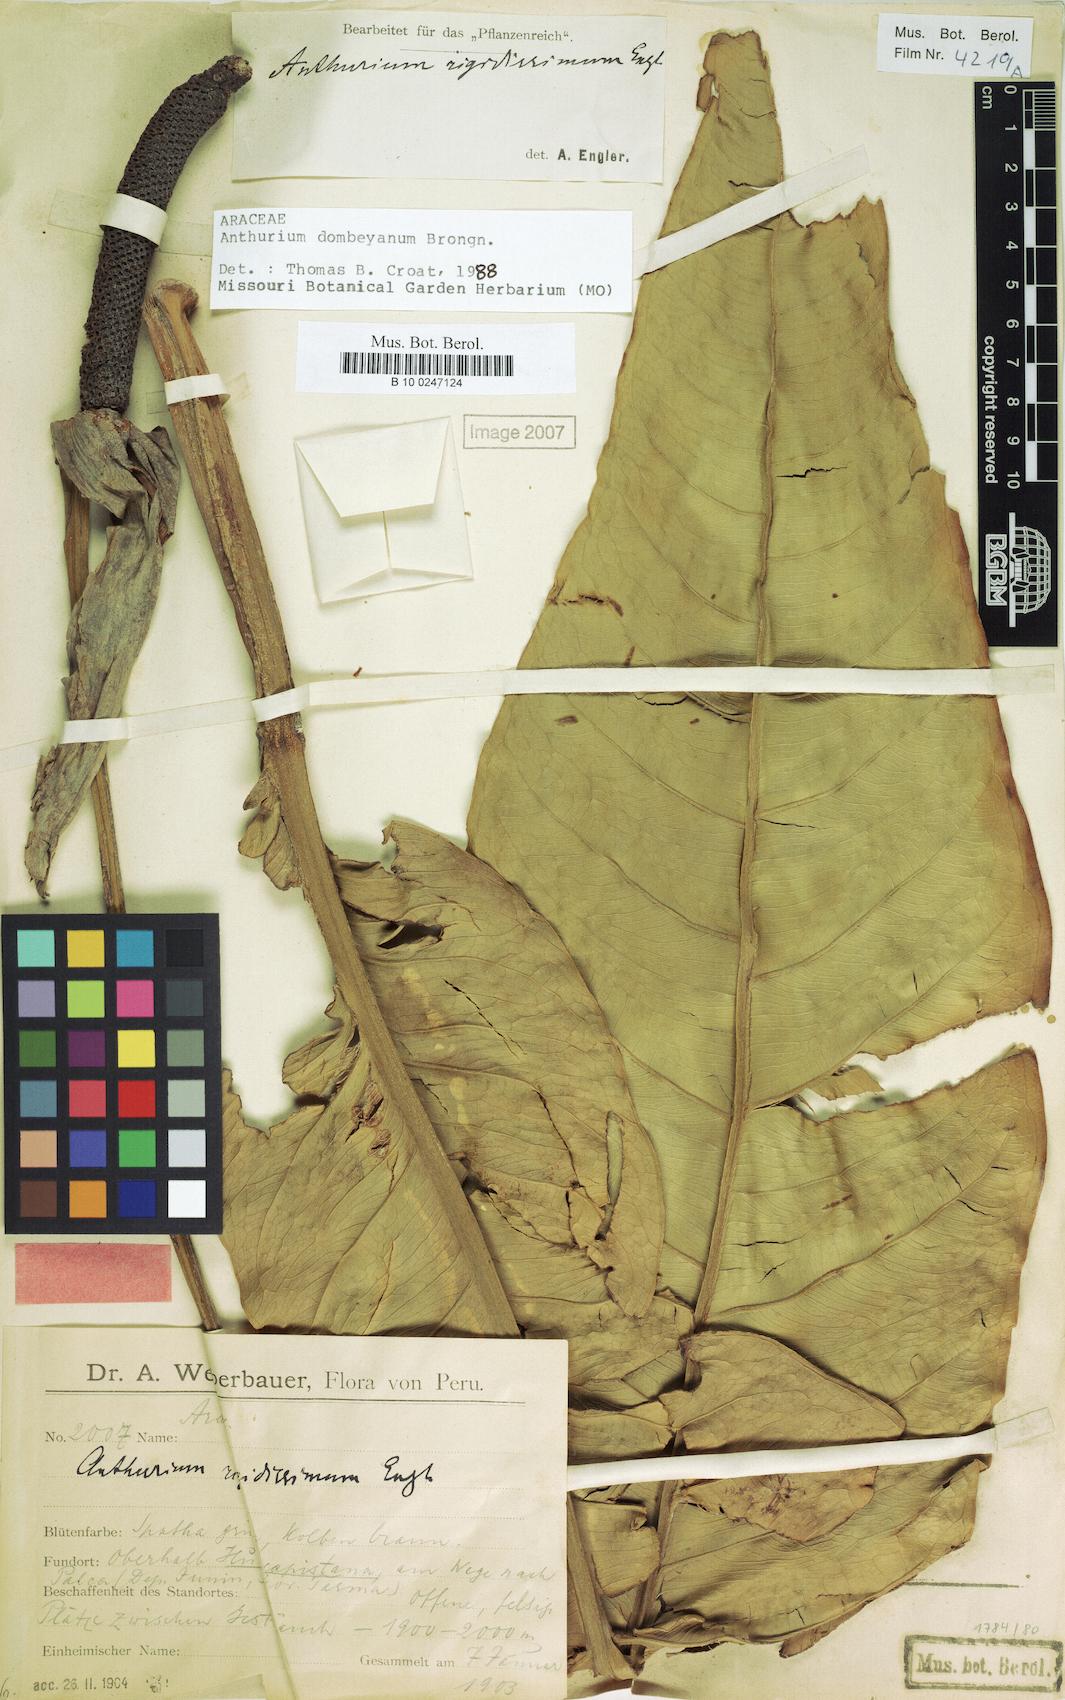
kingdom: Plantae
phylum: Tracheophyta
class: Liliopsida
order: Alismatales
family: Araceae
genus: Anthurium
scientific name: Anthurium dombeyanum
